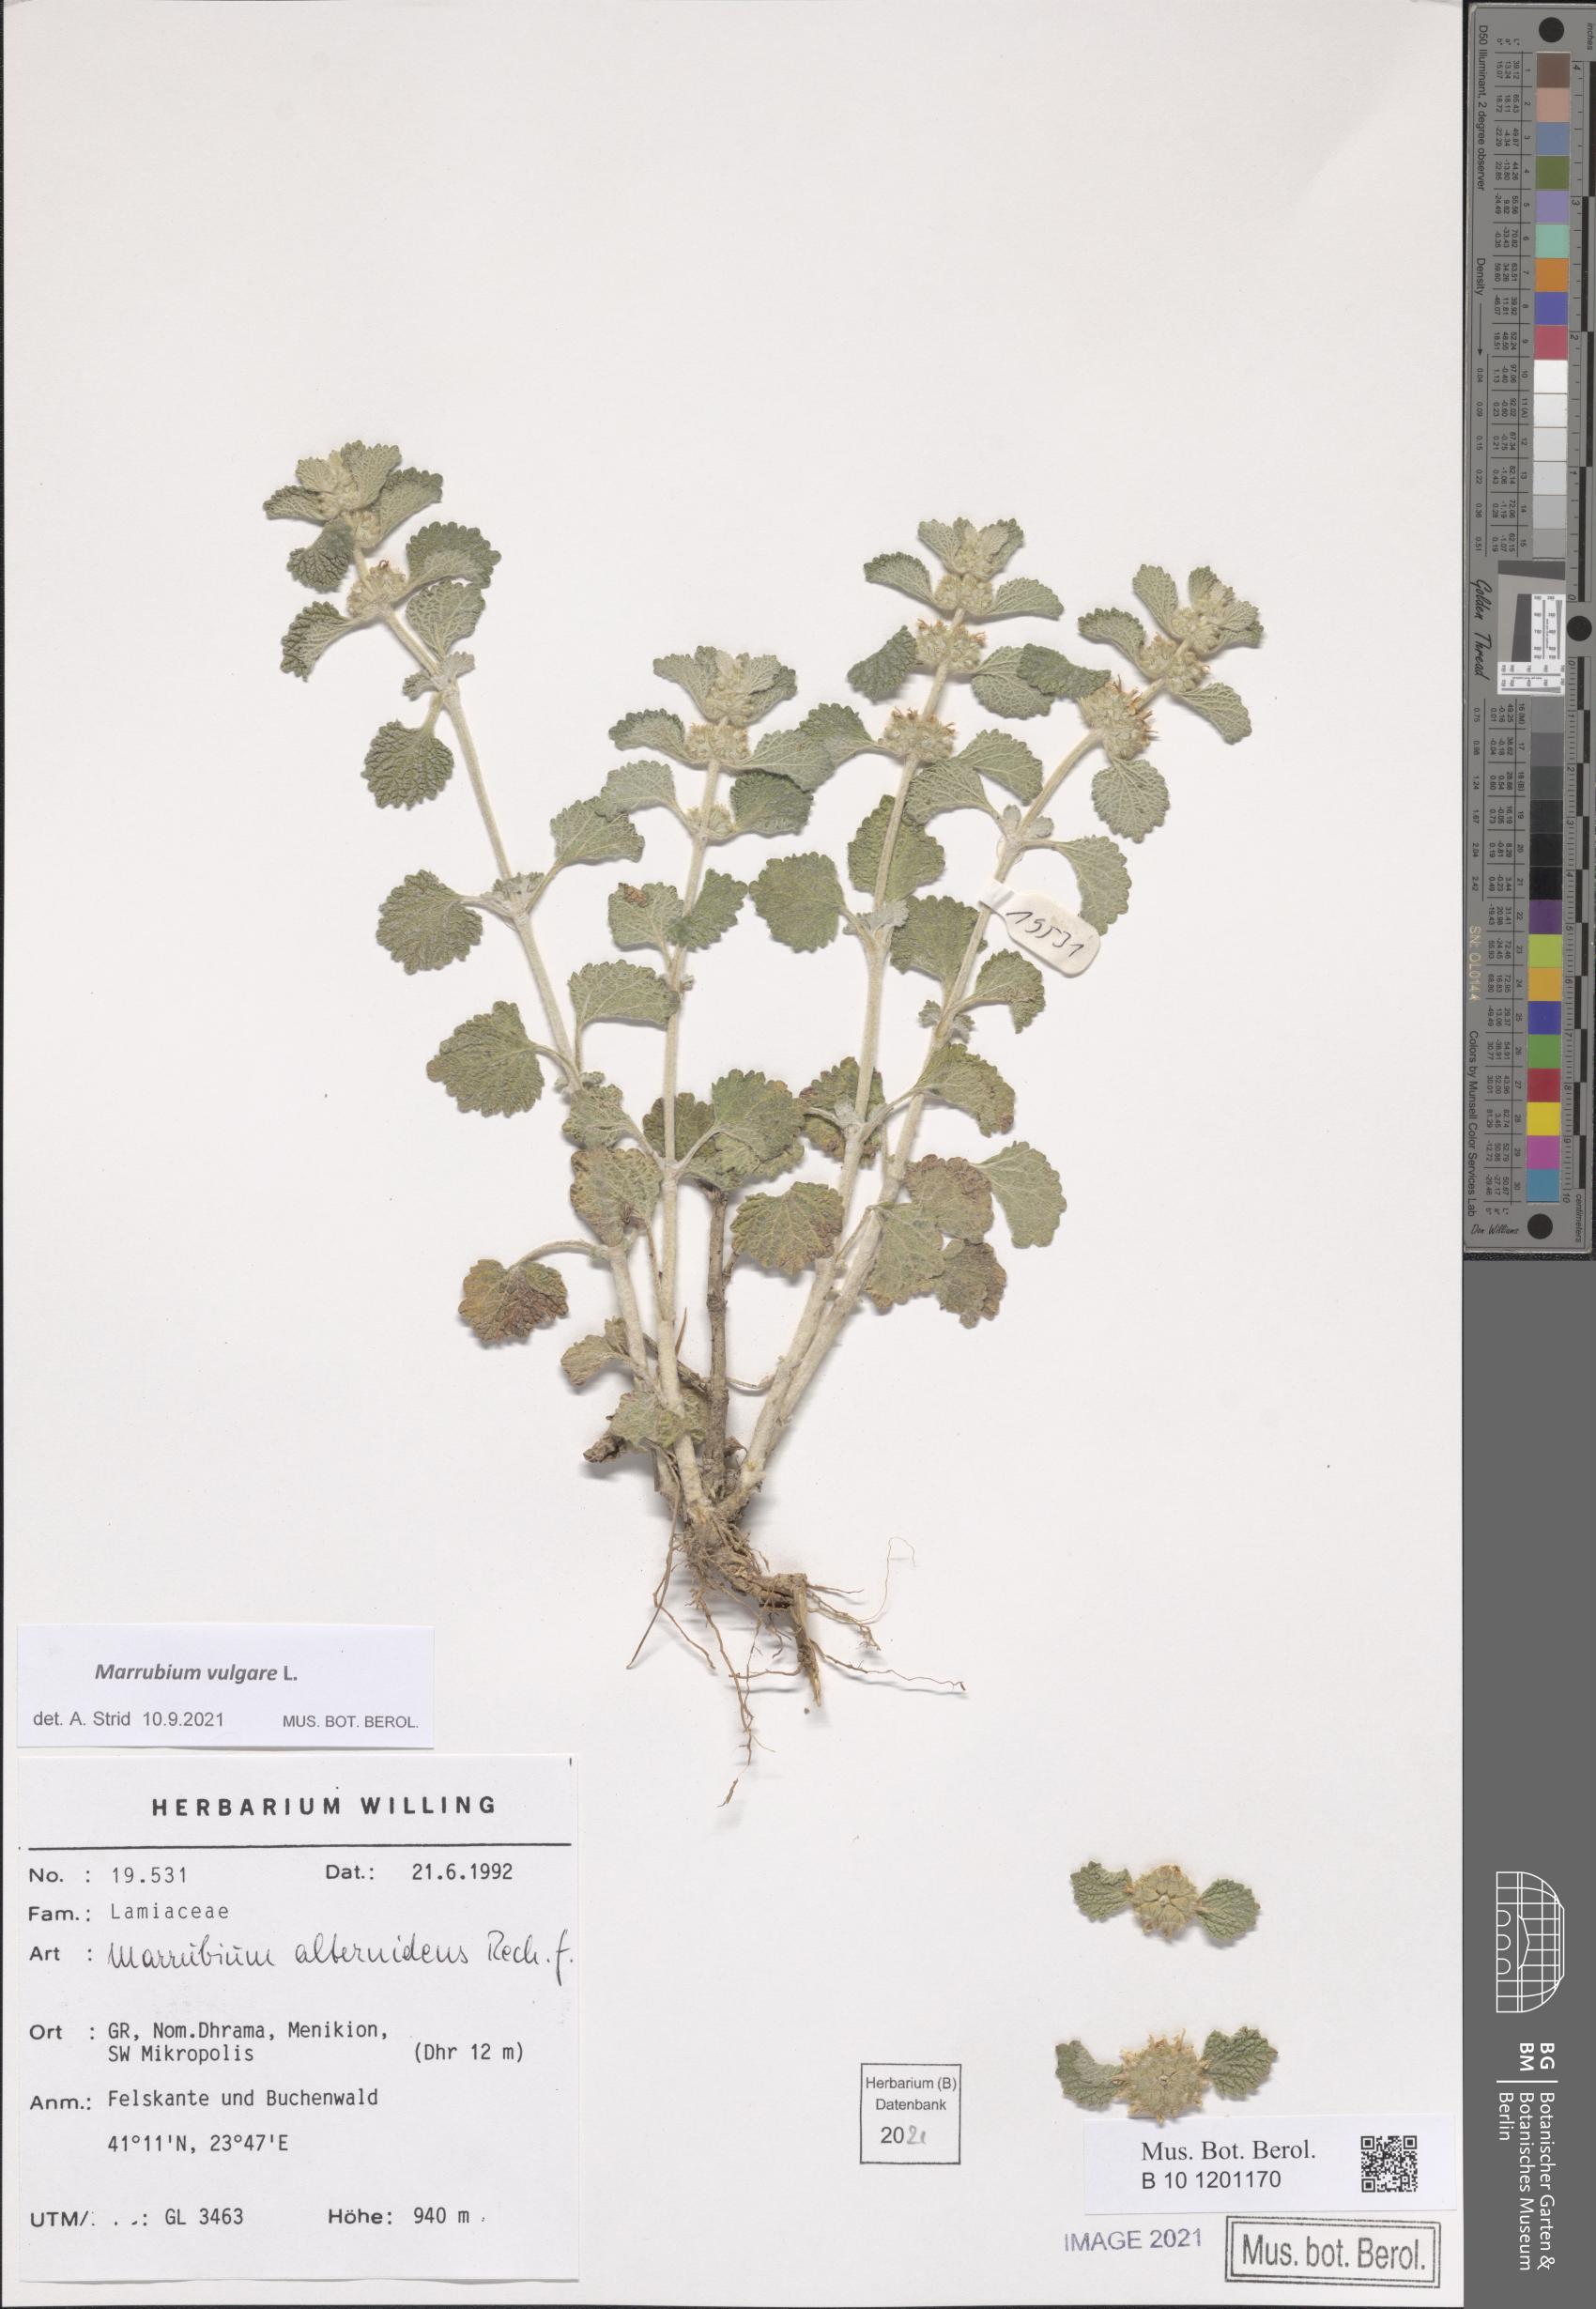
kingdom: Plantae
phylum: Tracheophyta
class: Magnoliopsida
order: Lamiales
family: Lamiaceae
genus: Marrubium
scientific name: Marrubium vulgare
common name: Horehound
